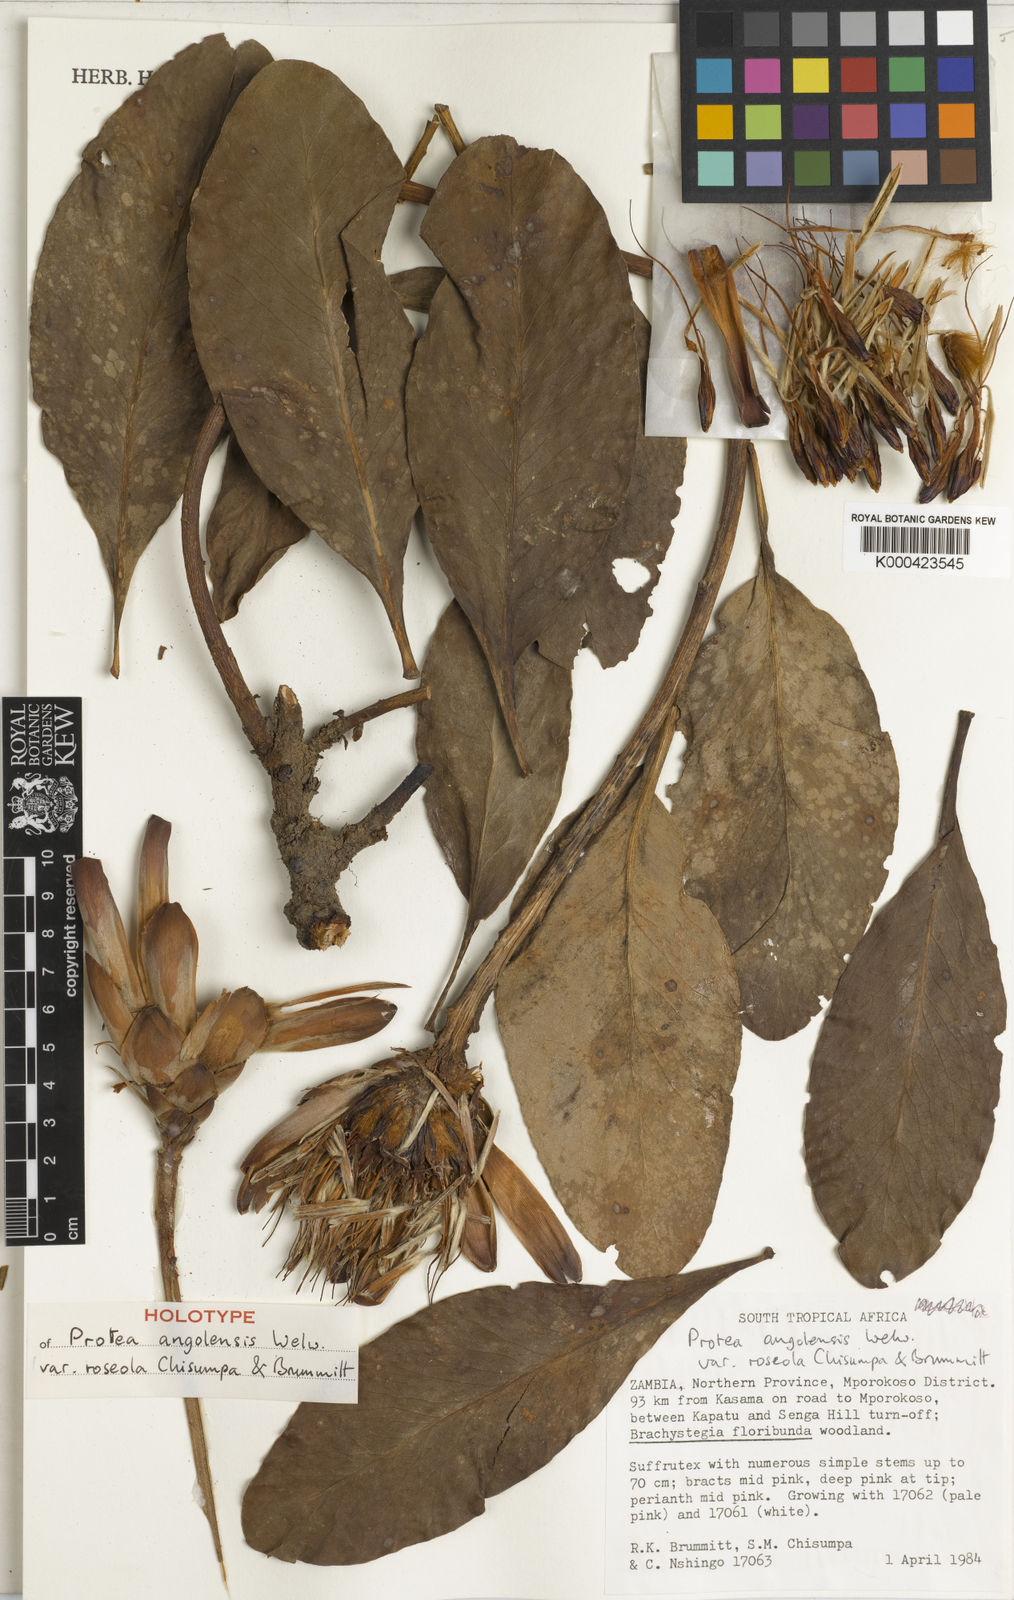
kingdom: Plantae
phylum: Tracheophyta
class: Magnoliopsida
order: Proteales
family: Proteaceae
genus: Protea
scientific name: Protea angolensis
